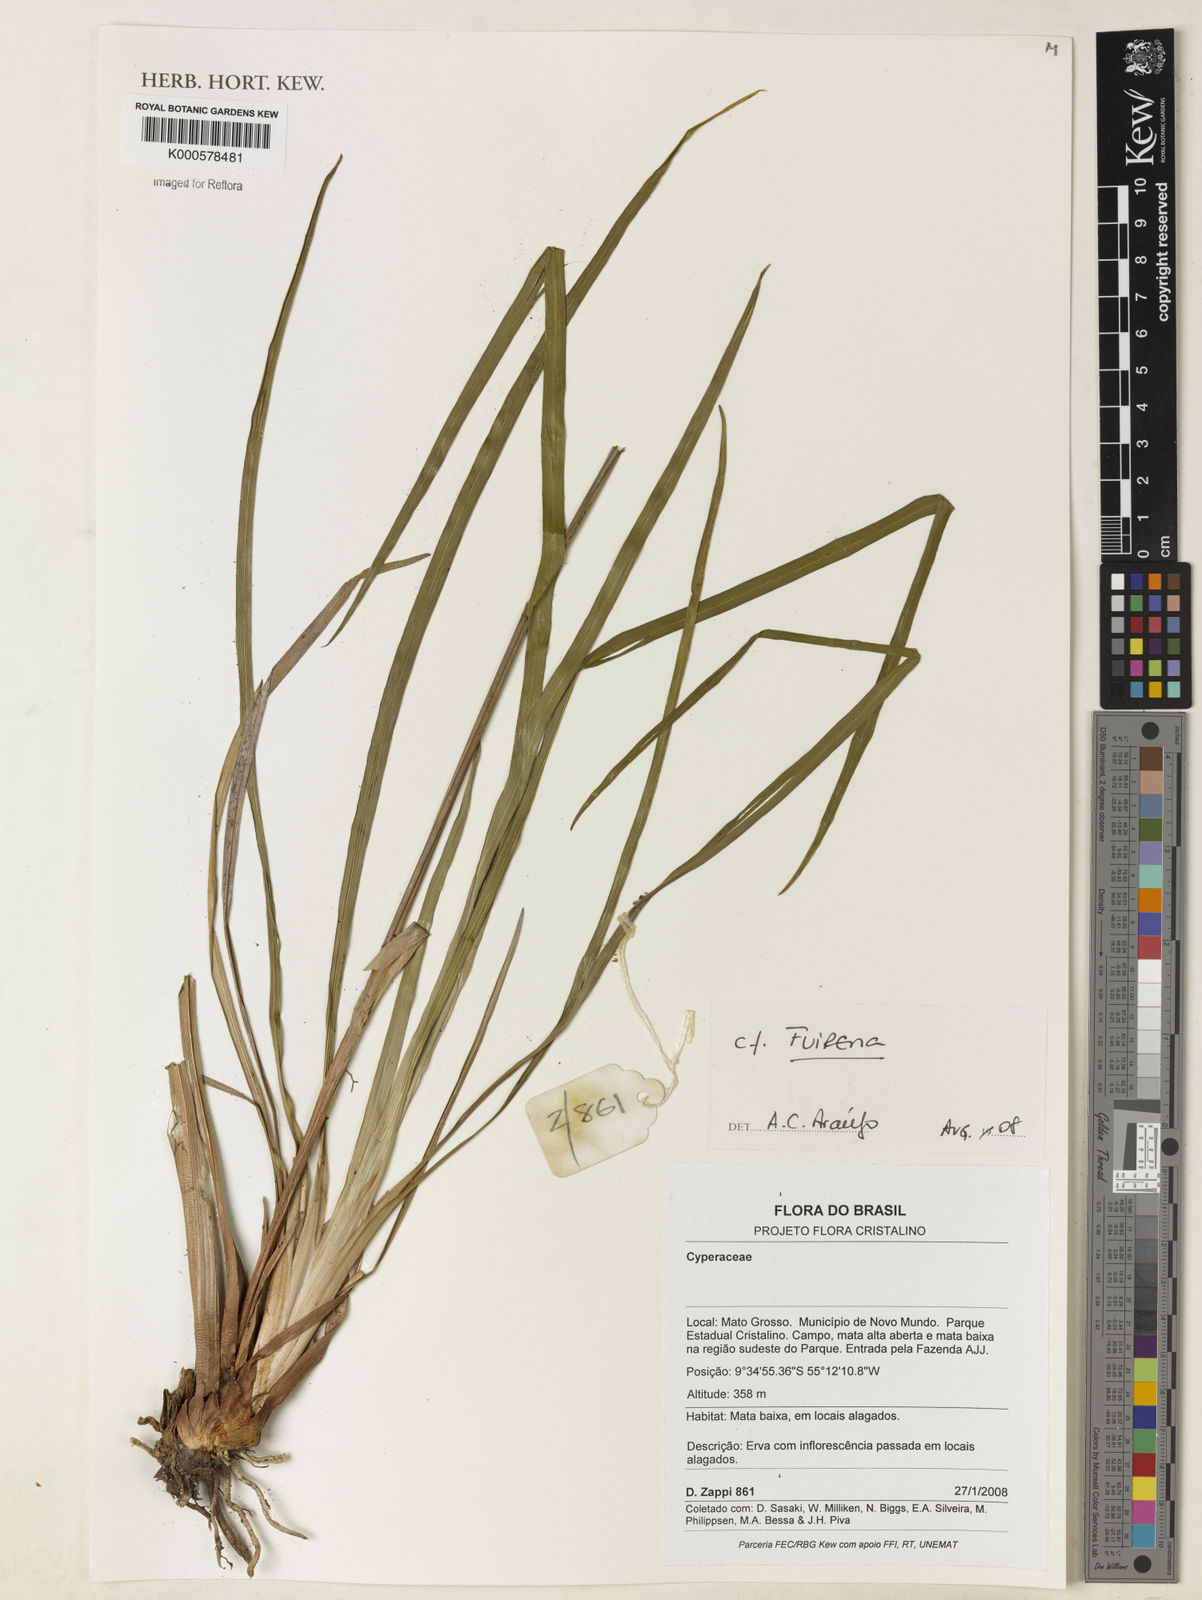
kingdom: Plantae
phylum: Tracheophyta
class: Liliopsida
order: Poales
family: Cyperaceae
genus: Fuirena
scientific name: Fuirena
